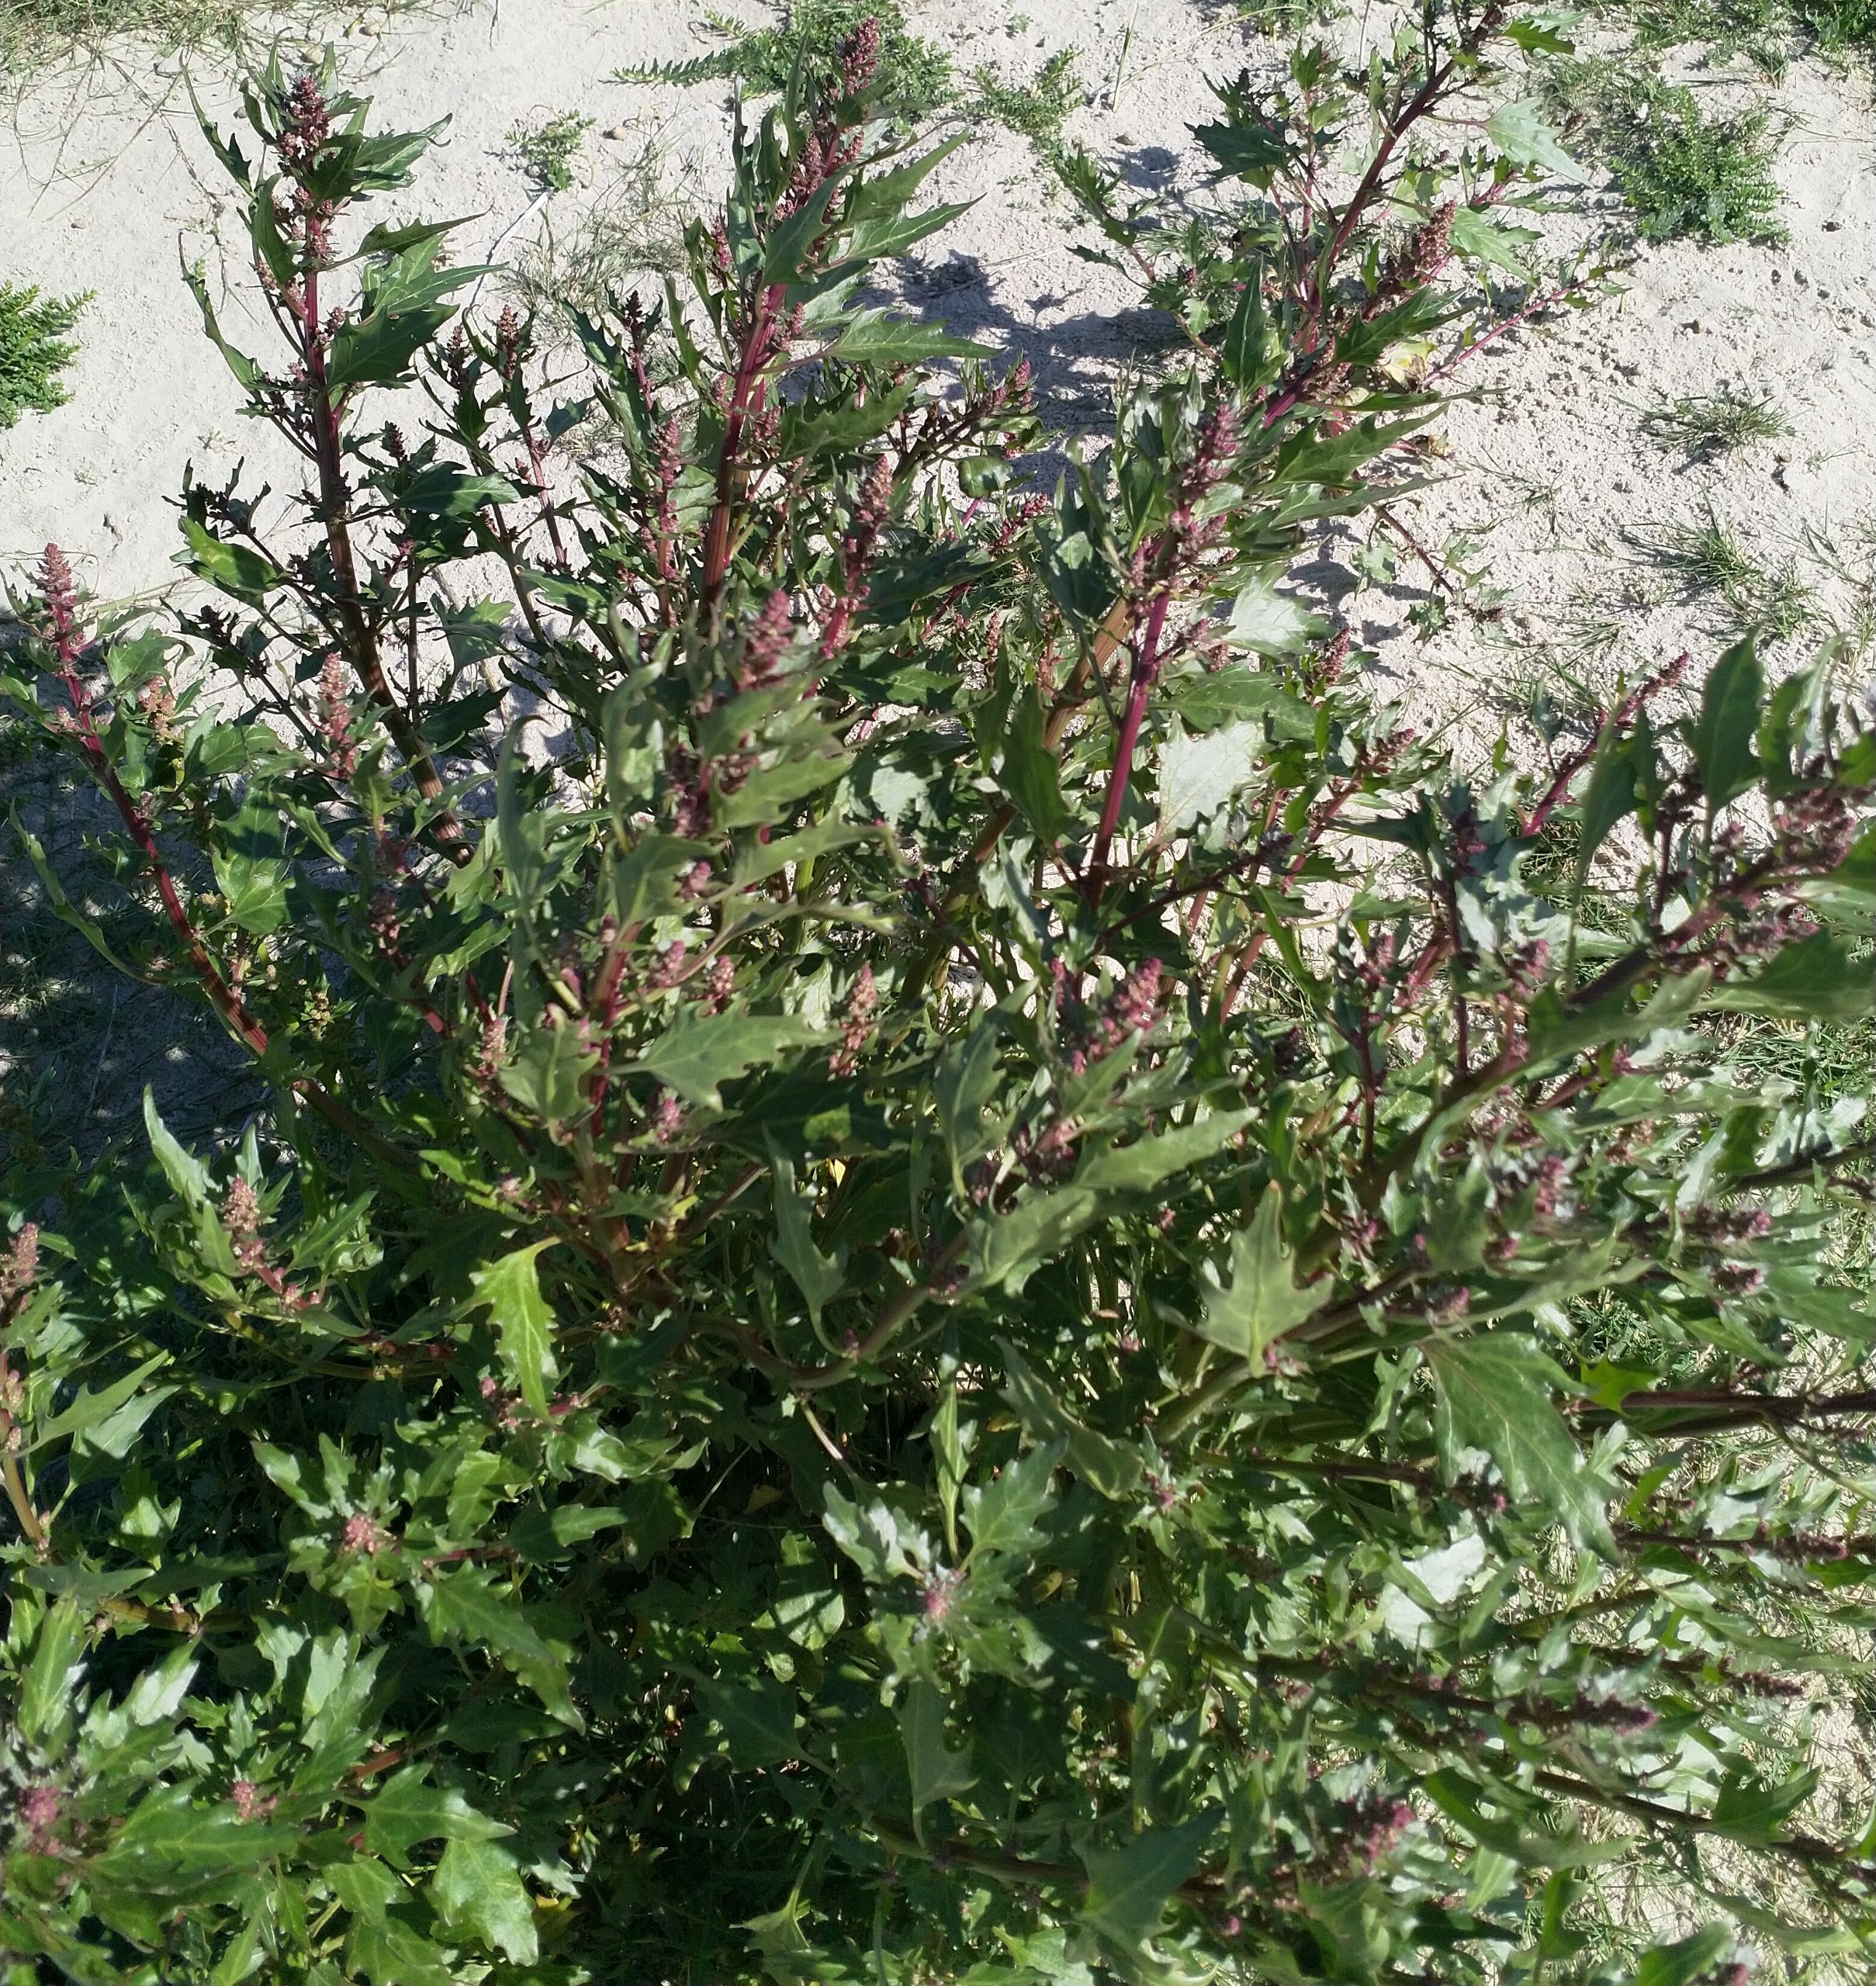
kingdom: Plantae
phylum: Tracheophyta
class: Magnoliopsida
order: Caryophyllales
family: Amaranthaceae
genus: Oxybasis
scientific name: Oxybasis rubra
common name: Rød gåsefod
